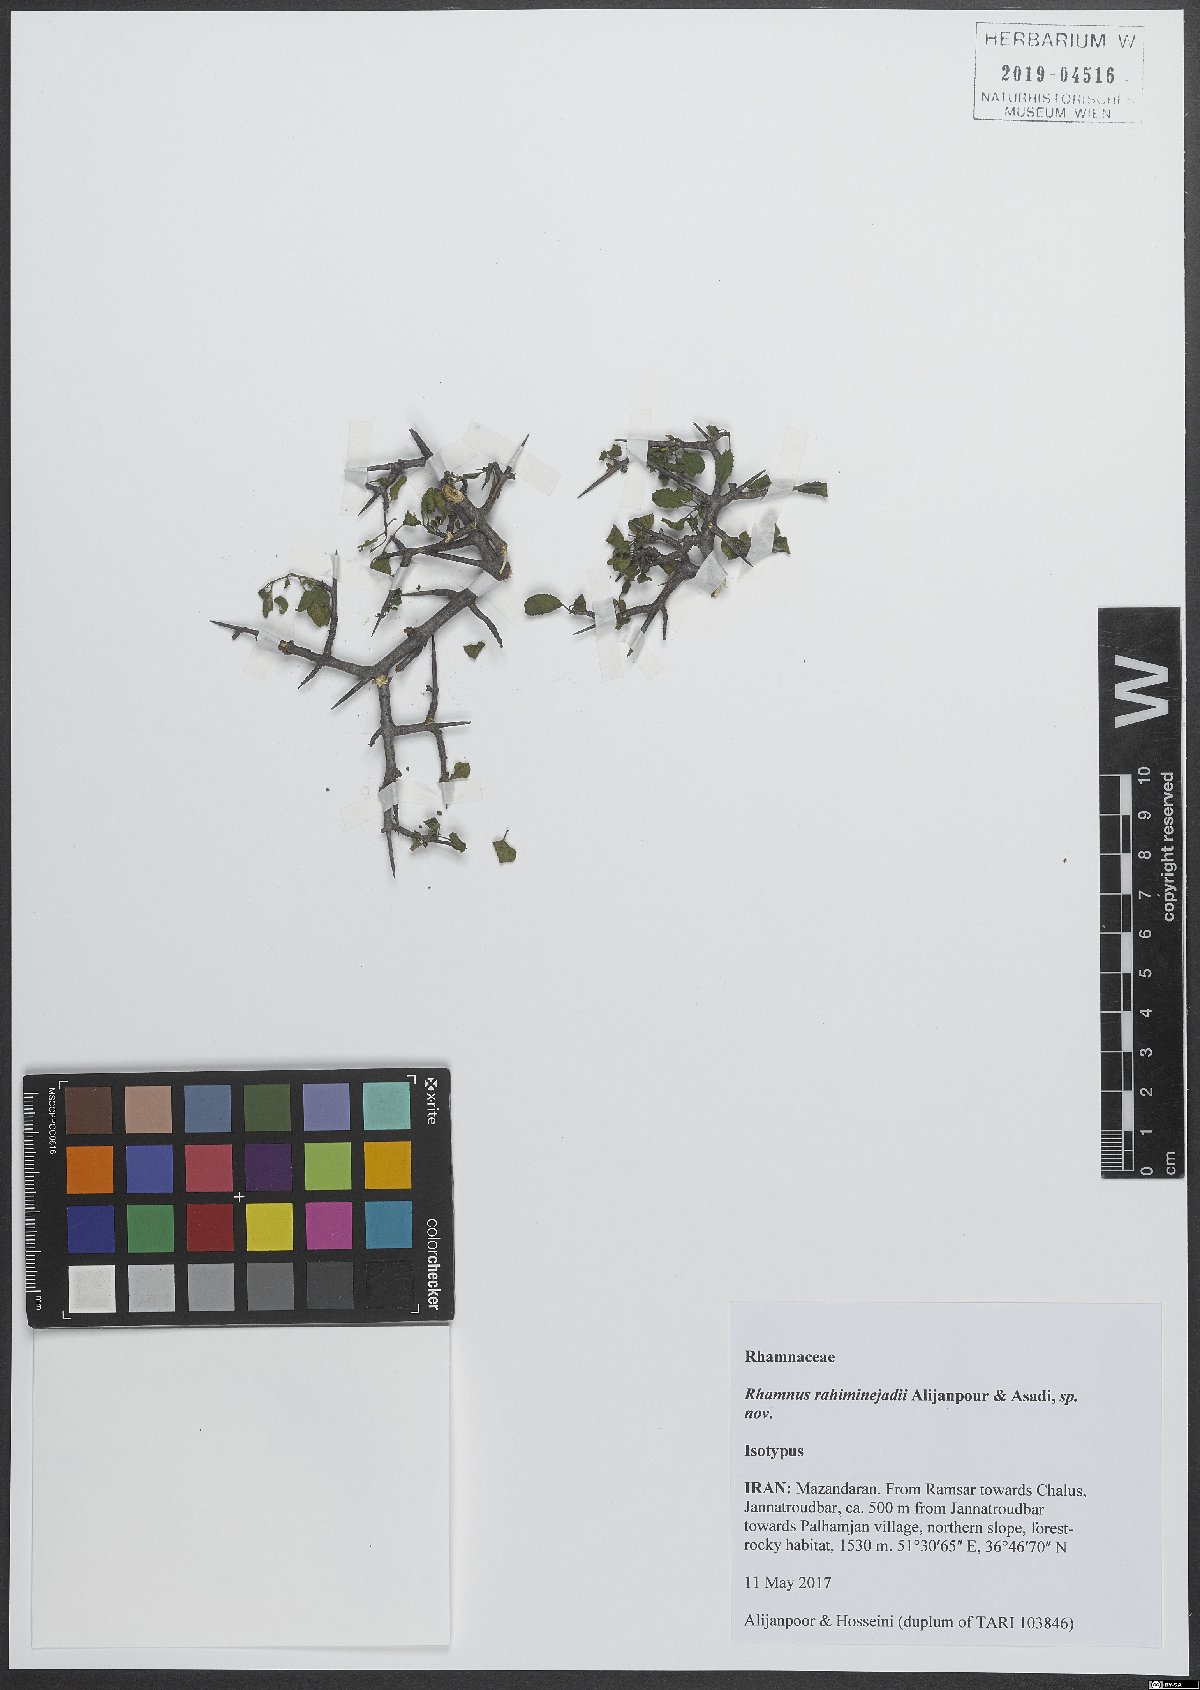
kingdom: Plantae
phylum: Tracheophyta
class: Magnoliopsida
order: Rosales
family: Rhamnaceae
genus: Rhamnus
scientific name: Rhamnus
